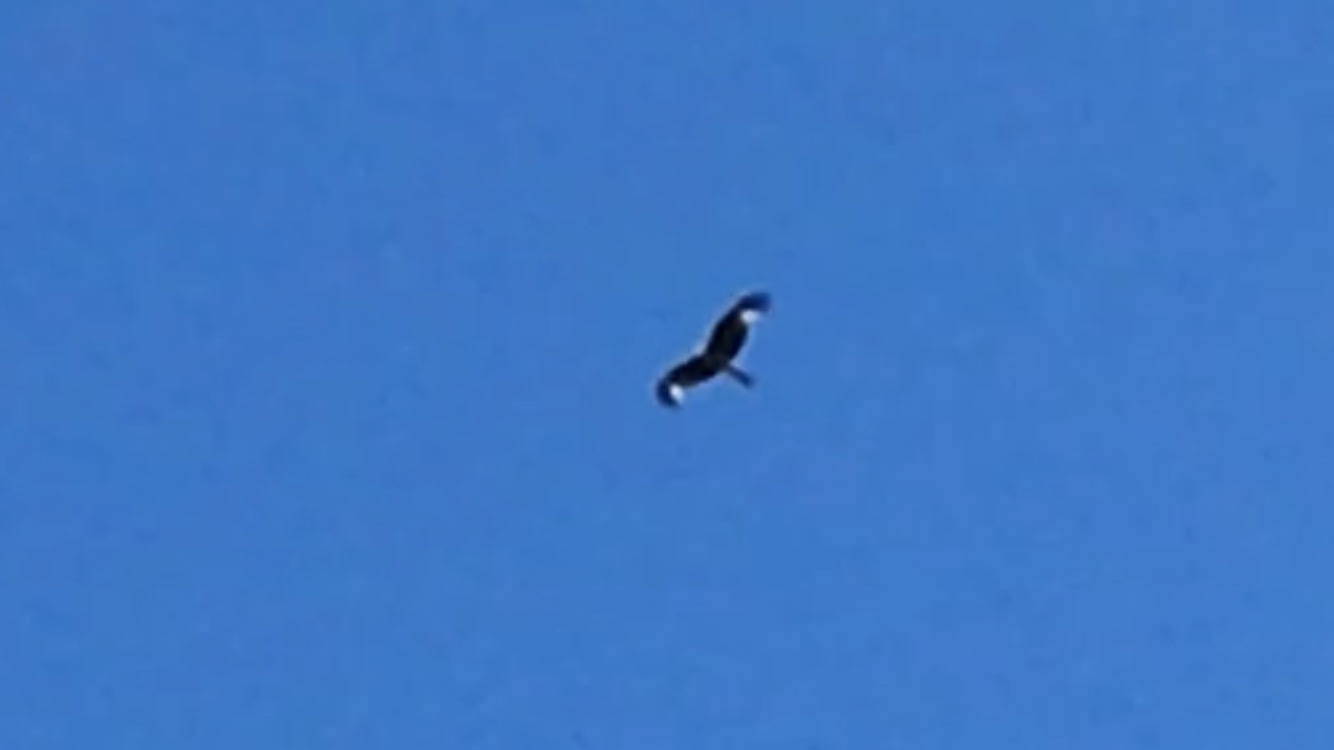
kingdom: Animalia
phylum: Chordata
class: Aves
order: Accipitriformes
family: Accipitridae
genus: Milvus
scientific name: Milvus milvus
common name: Rød glente
